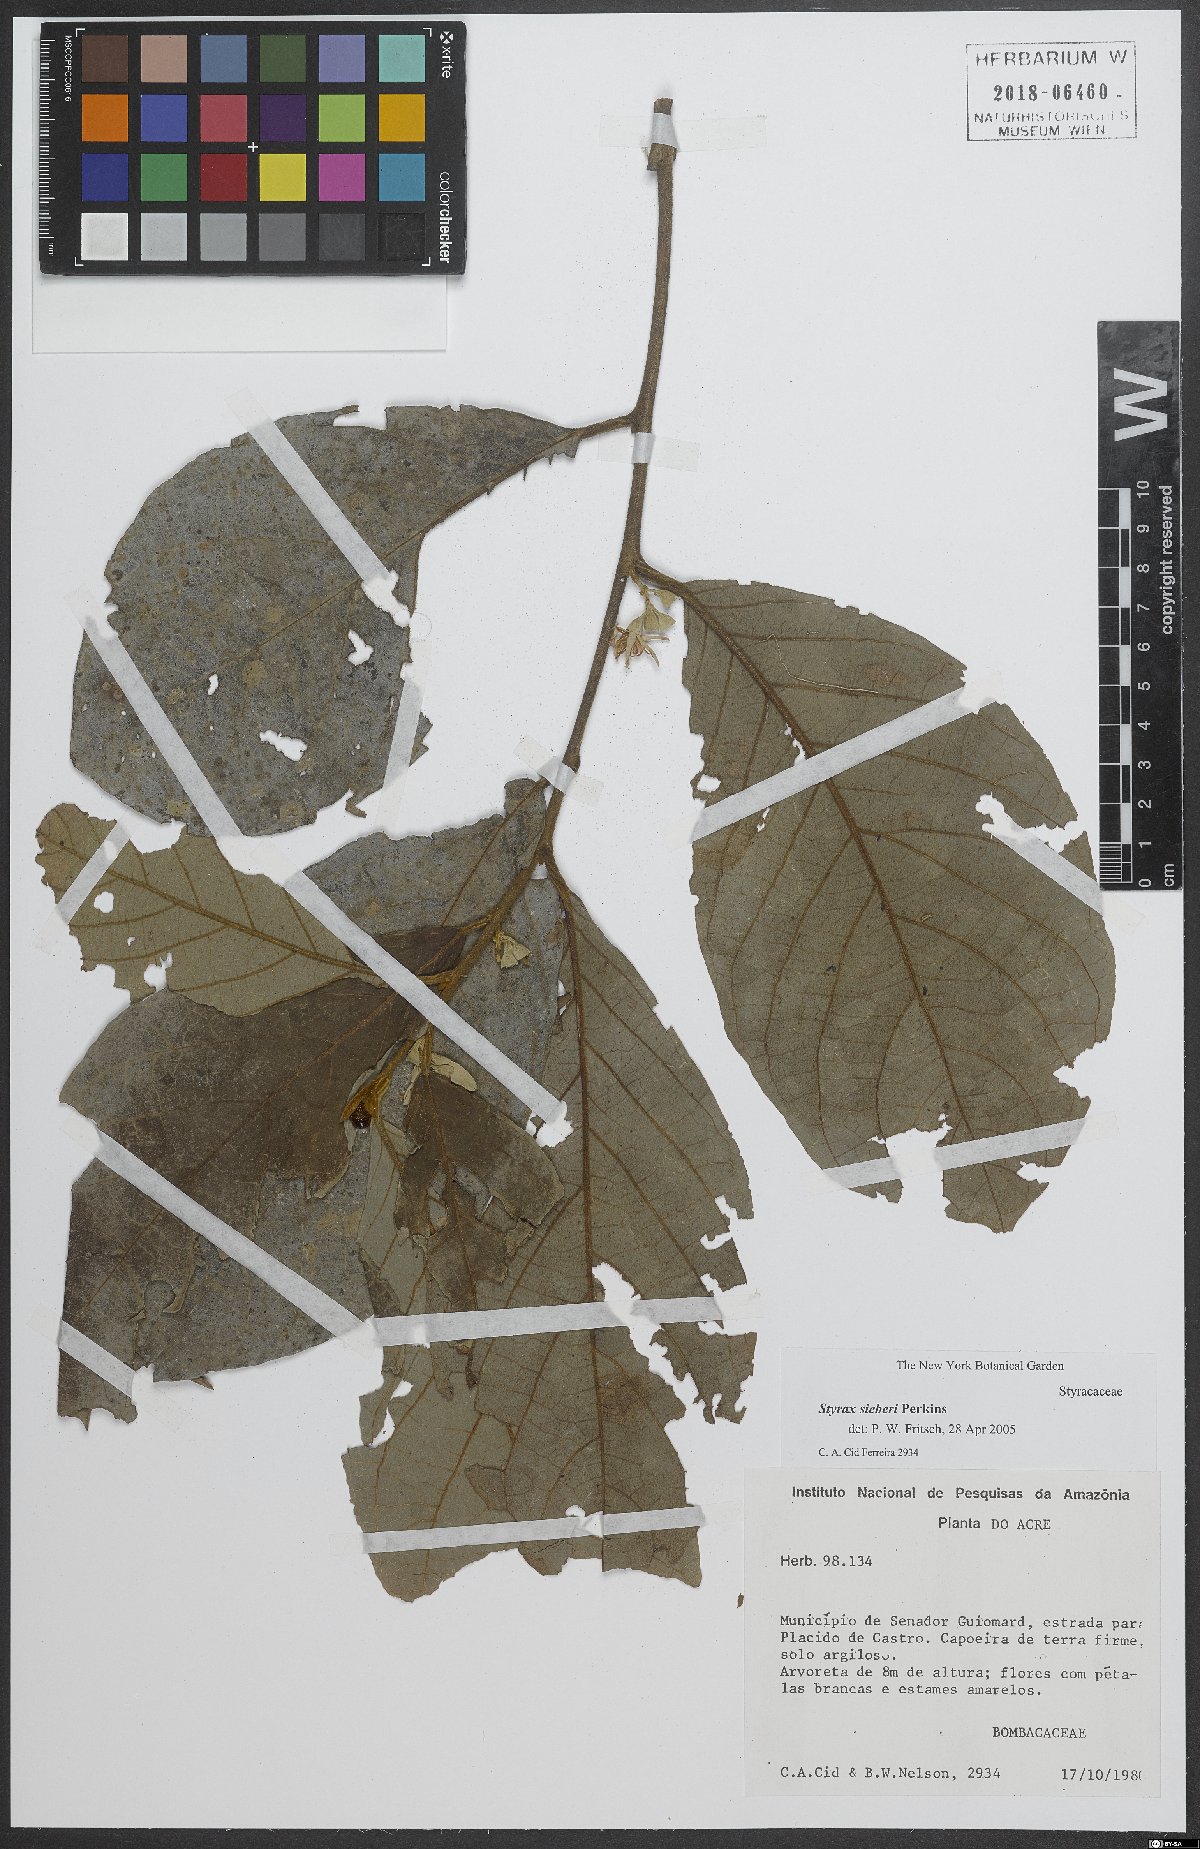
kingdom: Plantae
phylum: Tracheophyta
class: Magnoliopsida
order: Ericales
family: Styracaceae
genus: Styrax
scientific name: Styrax sieberi
